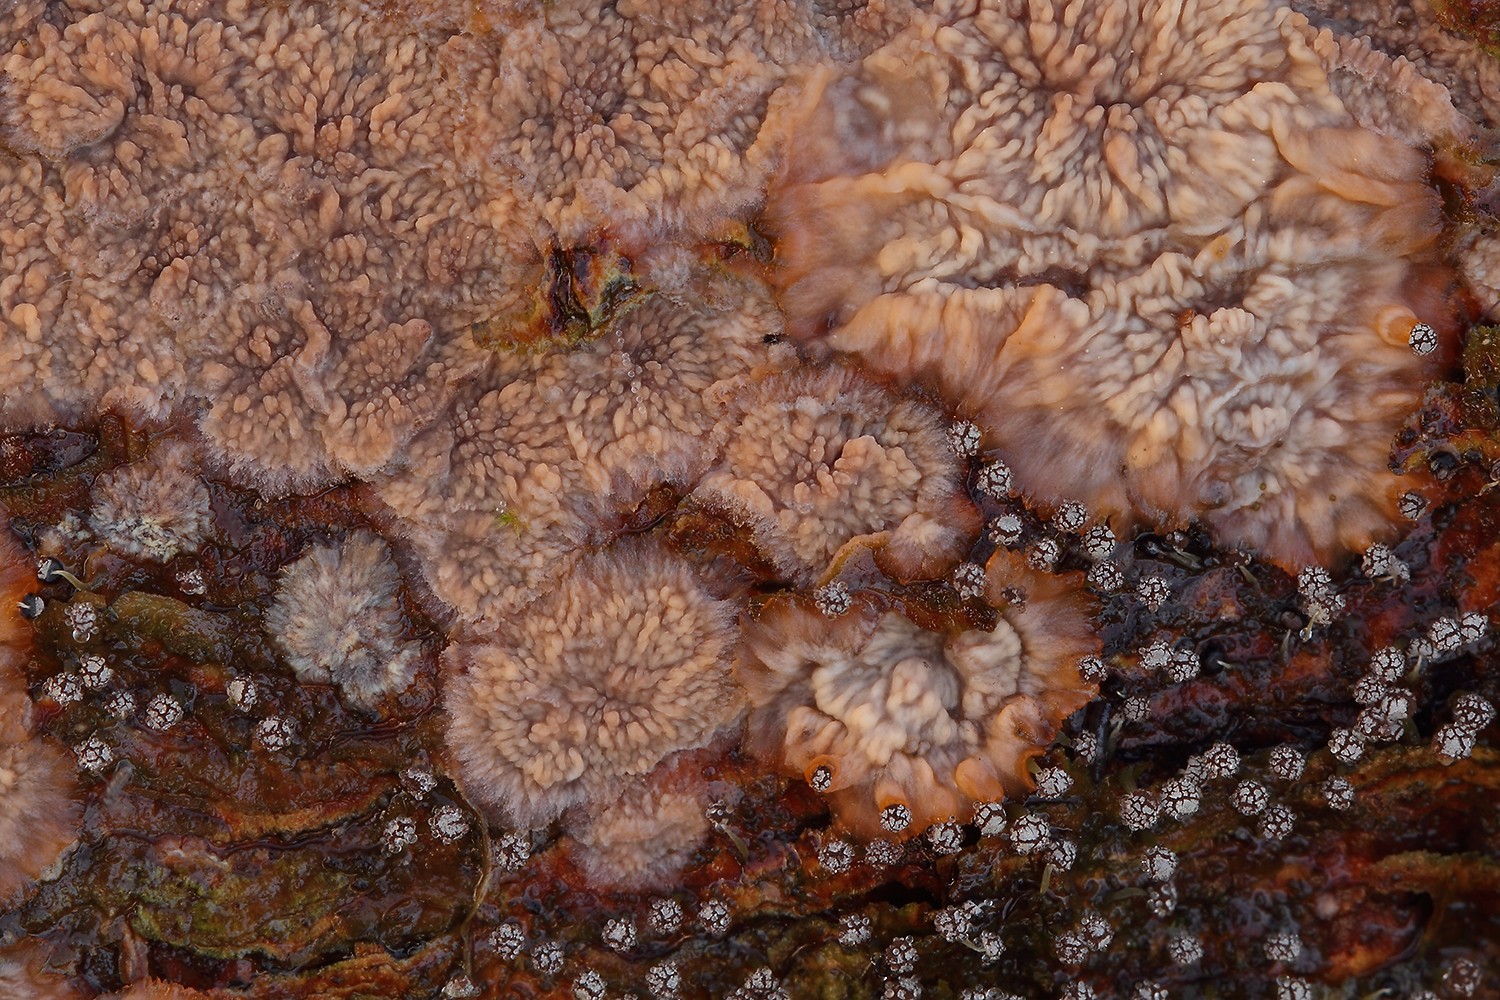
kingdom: Fungi
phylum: Basidiomycota
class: Agaricomycetes
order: Polyporales
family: Meruliaceae
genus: Phlebia
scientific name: Phlebia radiata
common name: stråle-åresvamp
